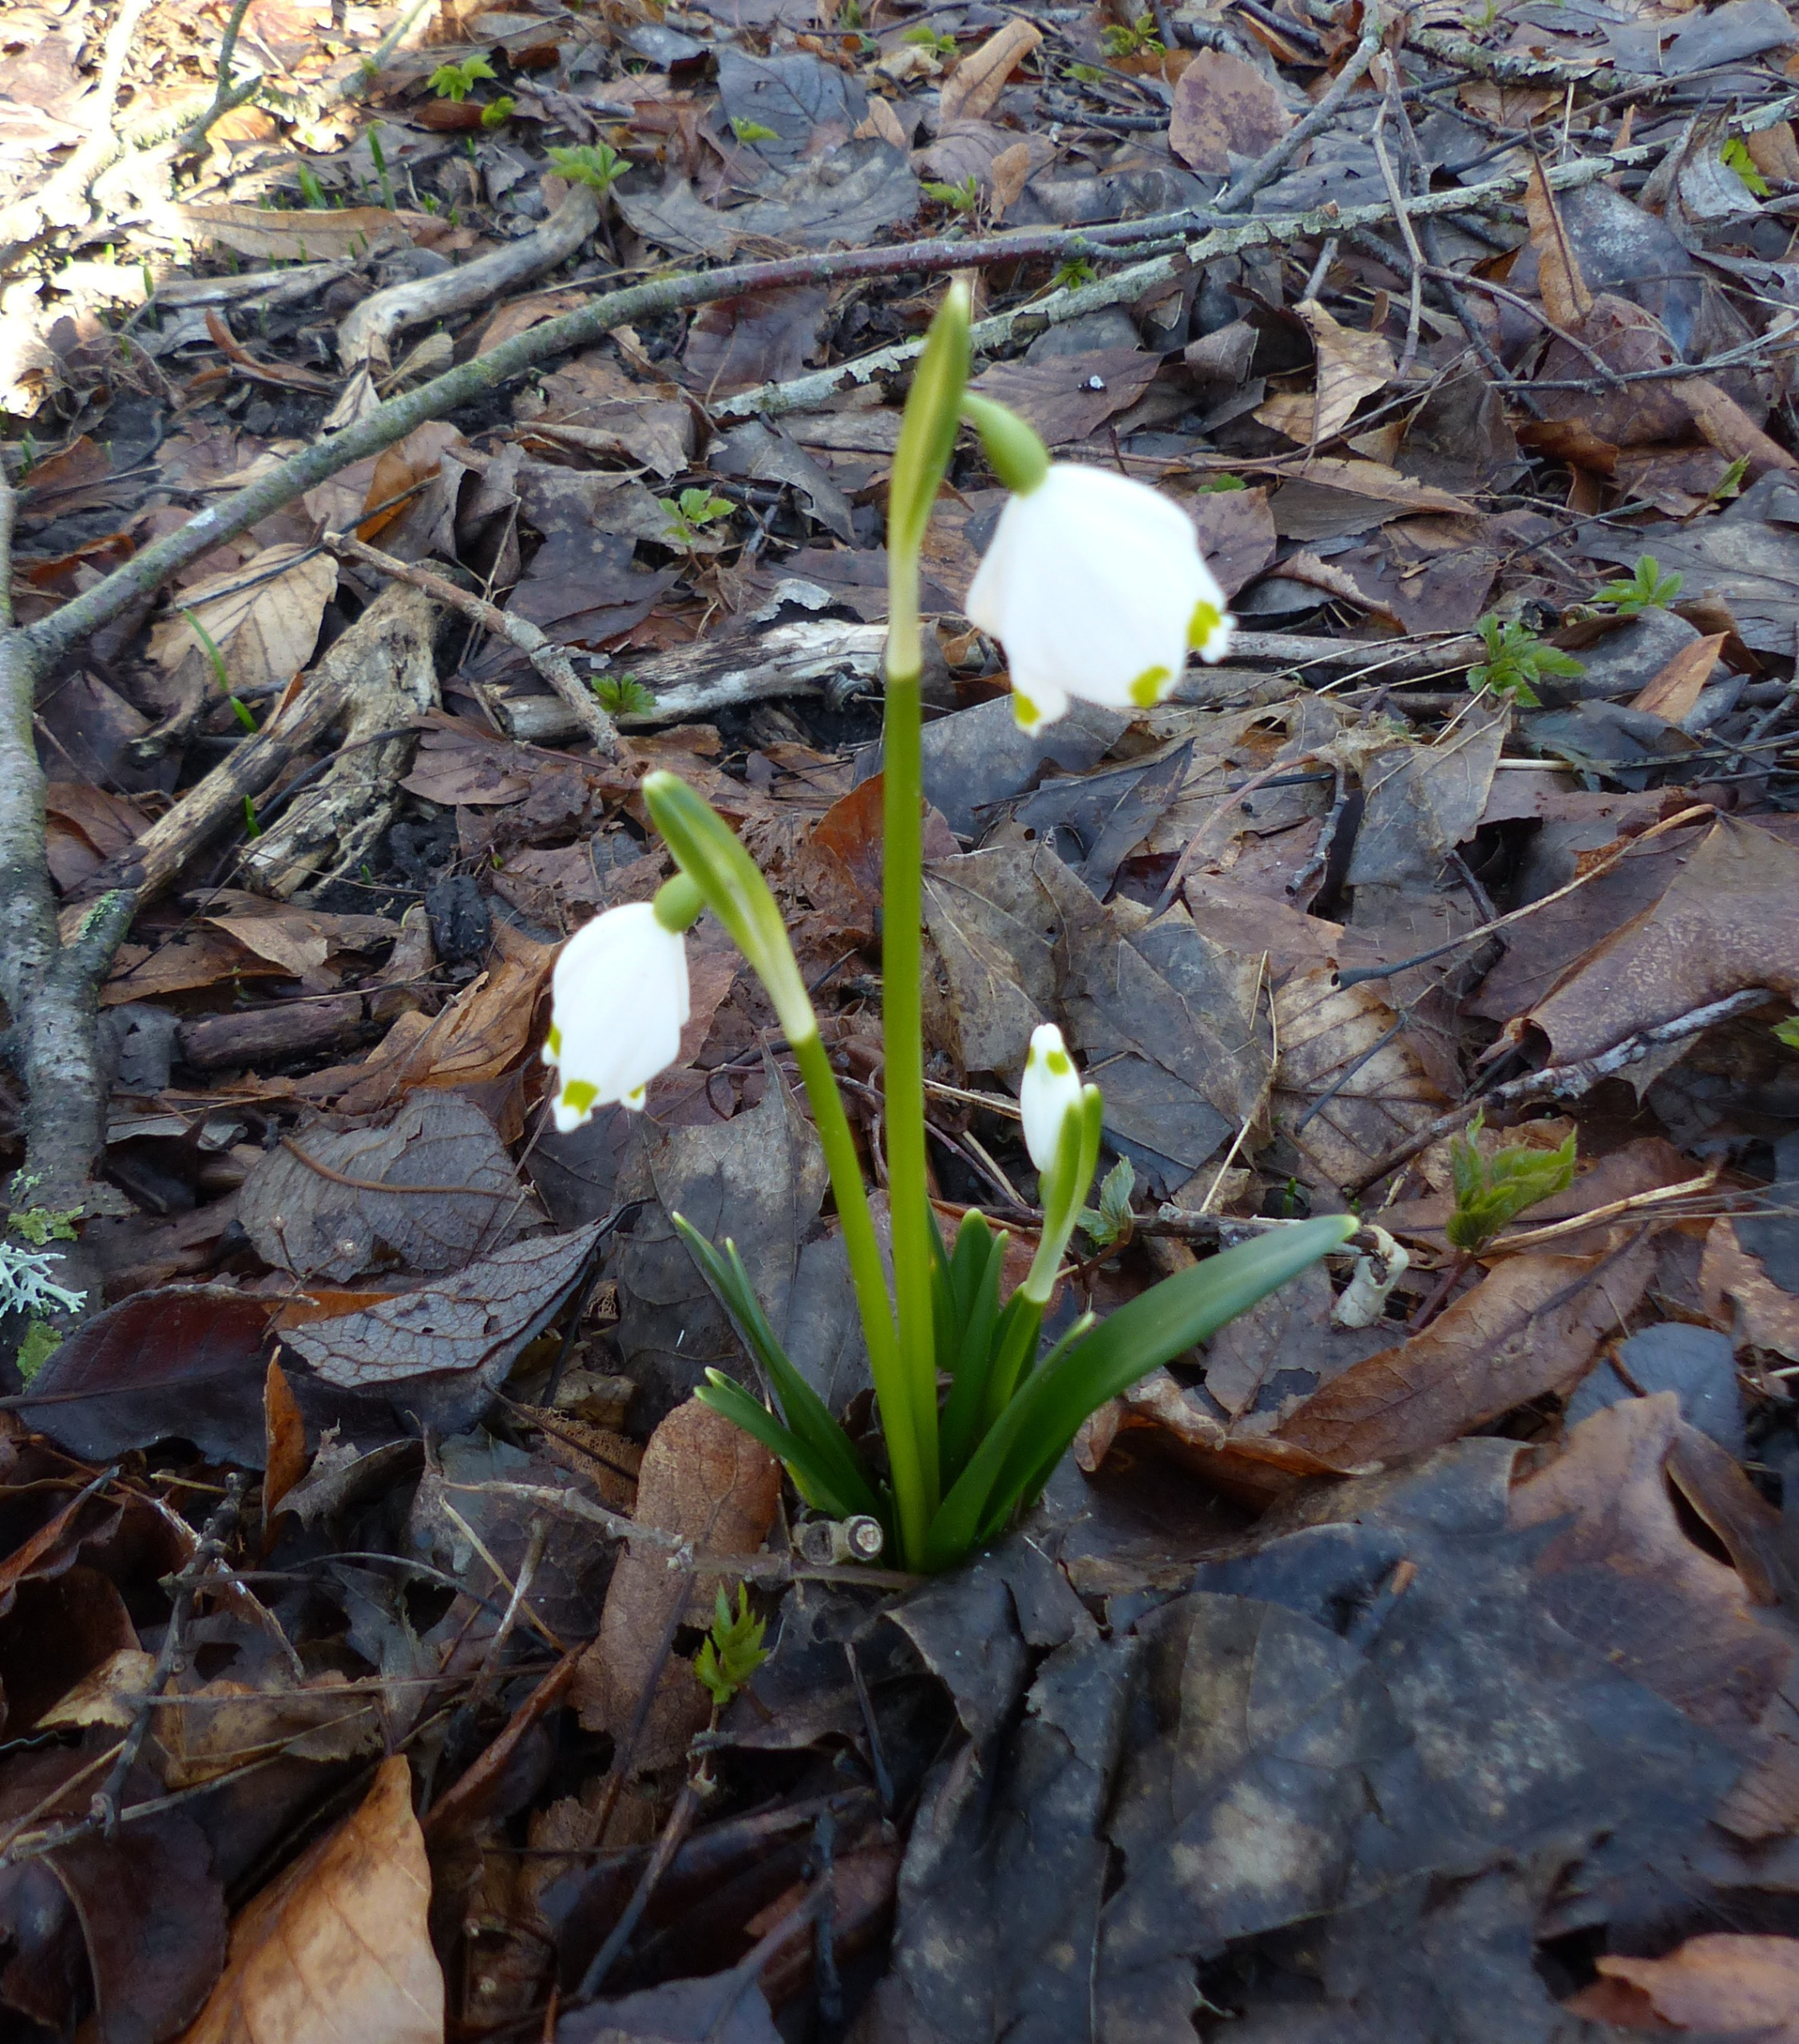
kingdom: Plantae
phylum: Tracheophyta
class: Liliopsida
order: Asparagales
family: Amaryllidaceae
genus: Leucojum
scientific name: Leucojum vernum
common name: Dorthealilje
